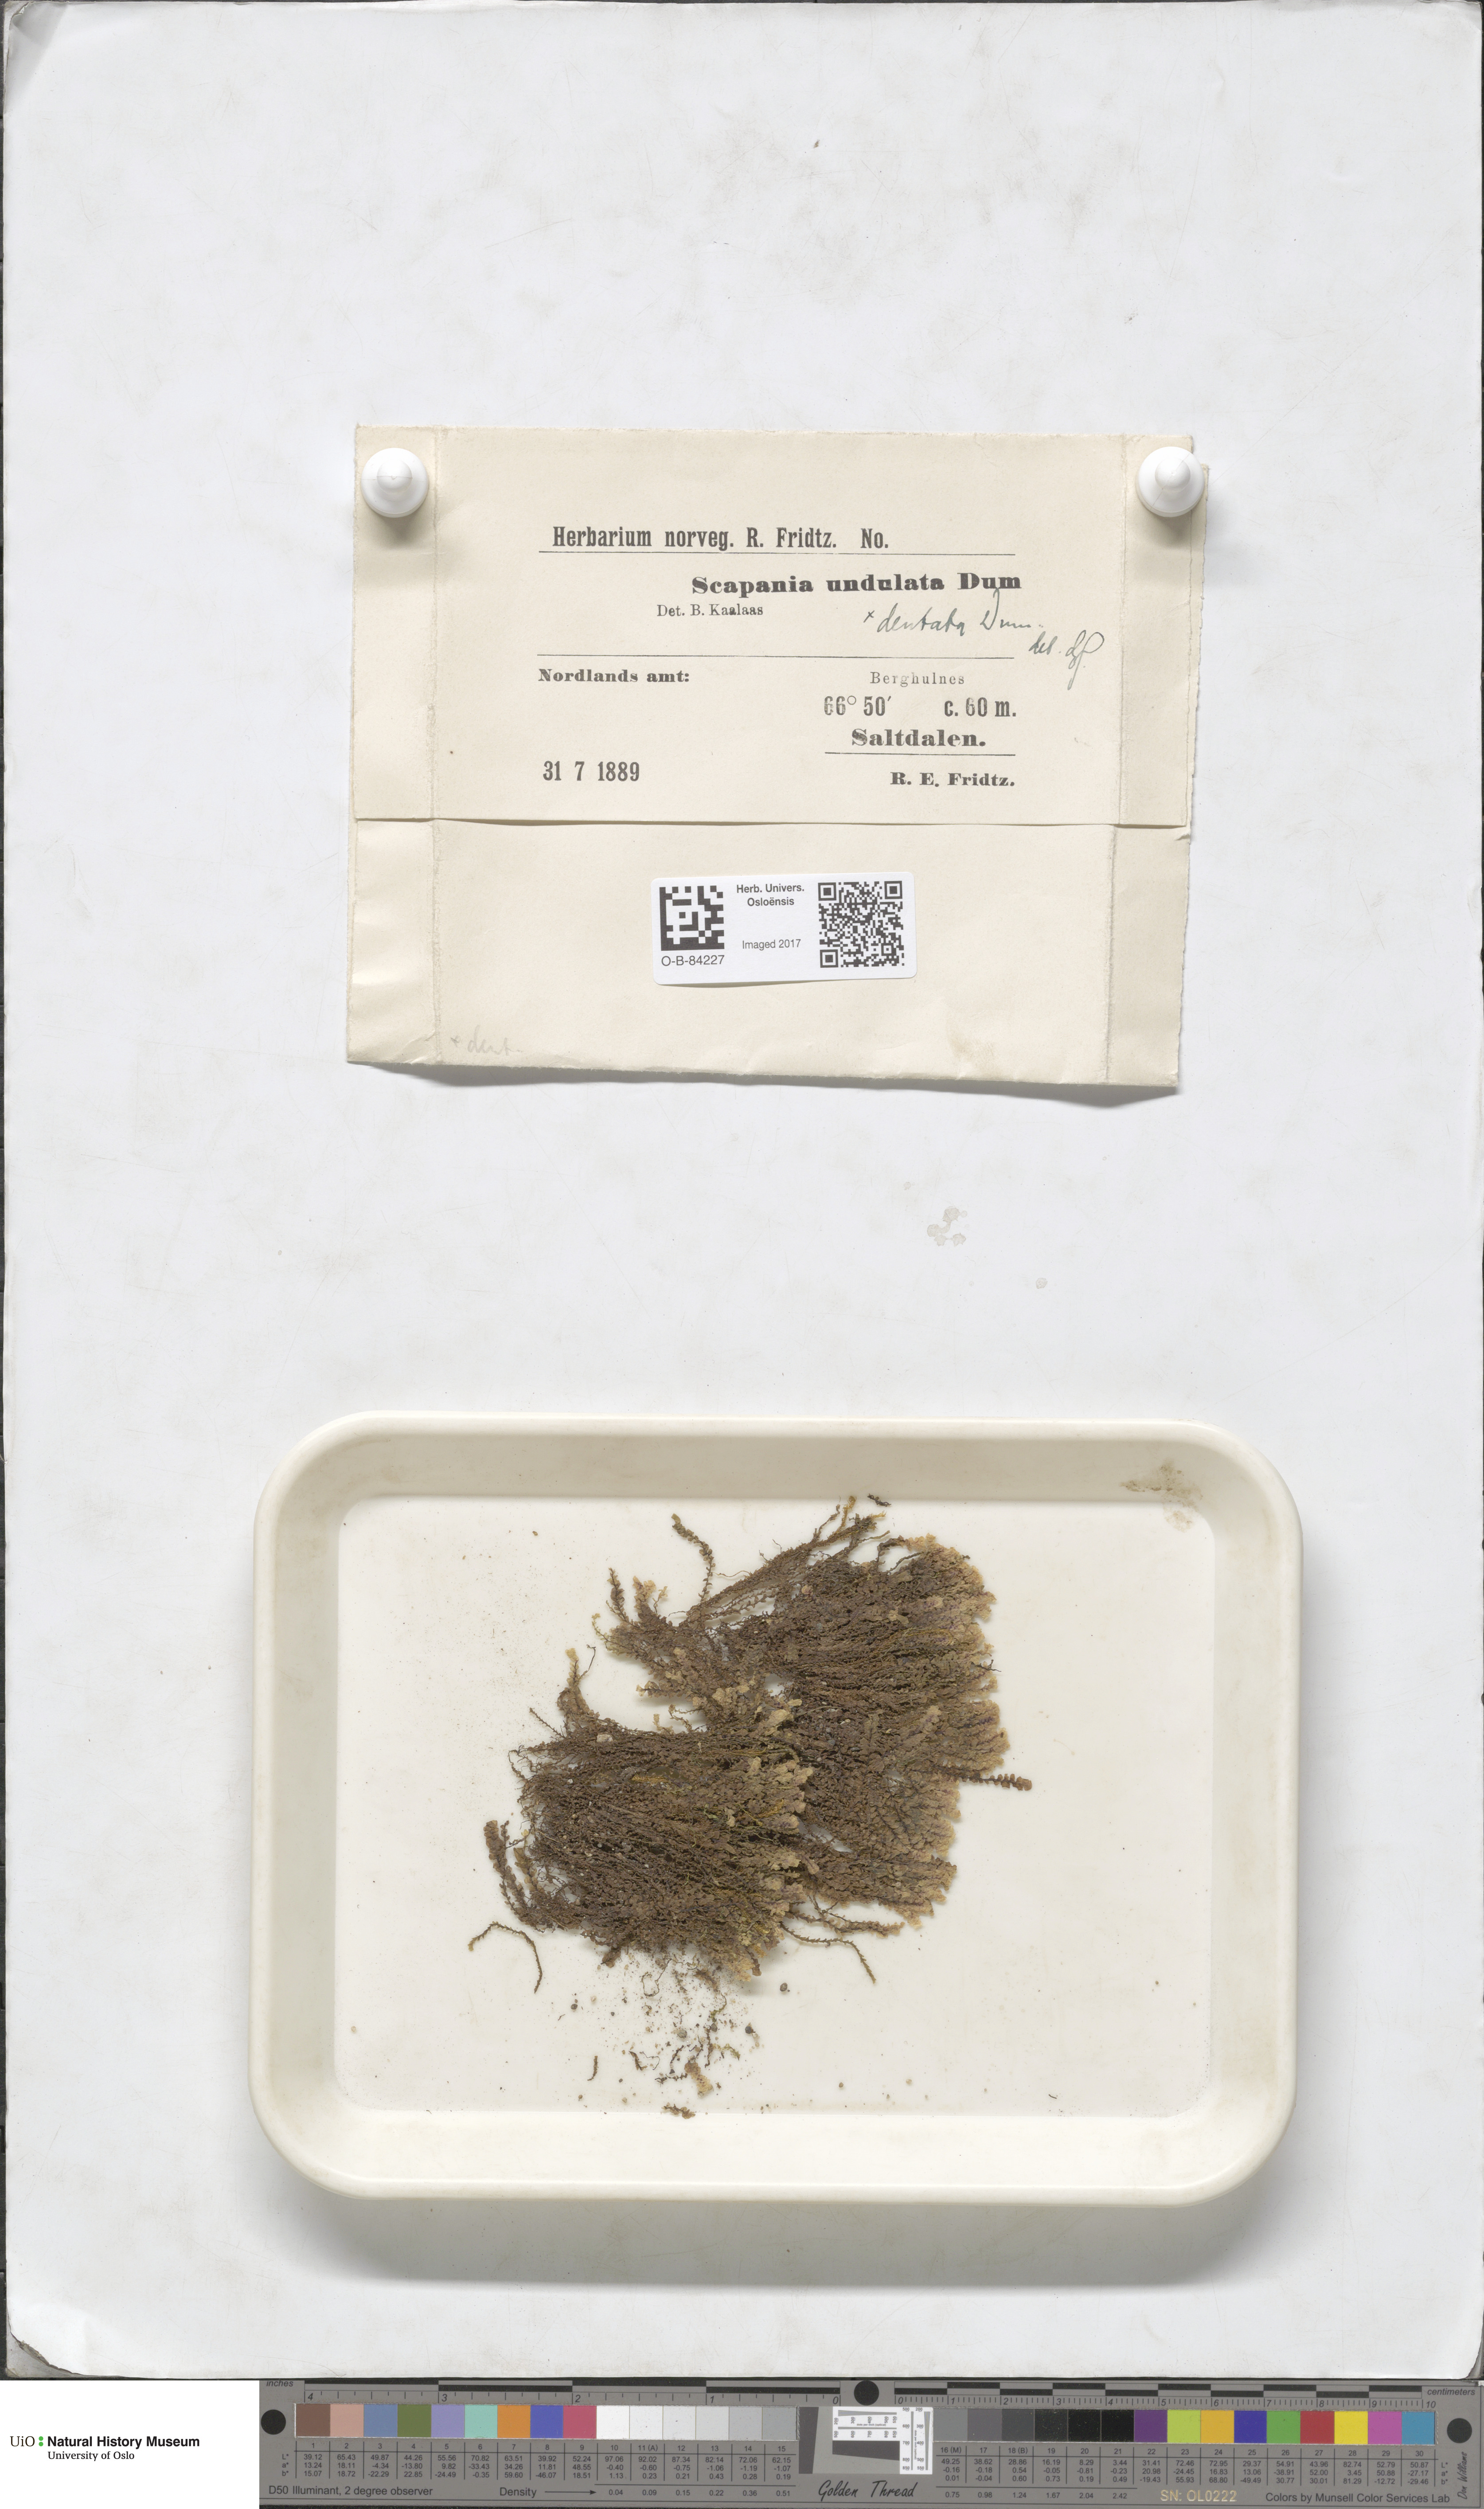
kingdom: Plantae
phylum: Marchantiophyta
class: Jungermanniopsida
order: Jungermanniales
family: Scapaniaceae
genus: Scapania
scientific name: Scapania undulata
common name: Water earwort
